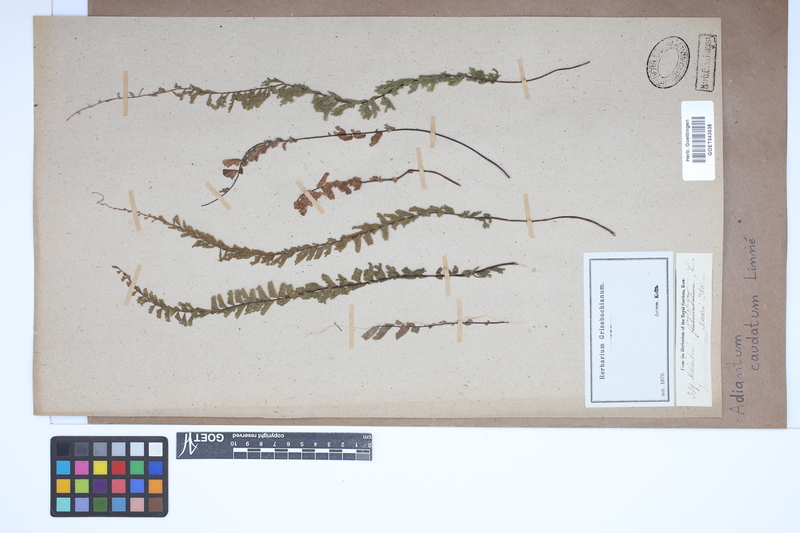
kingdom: Plantae
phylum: Tracheophyta
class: Polypodiopsida
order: Polypodiales
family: Pteridaceae
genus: Adiantum
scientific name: Adiantum caudatum
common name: Tailed maidenhair
